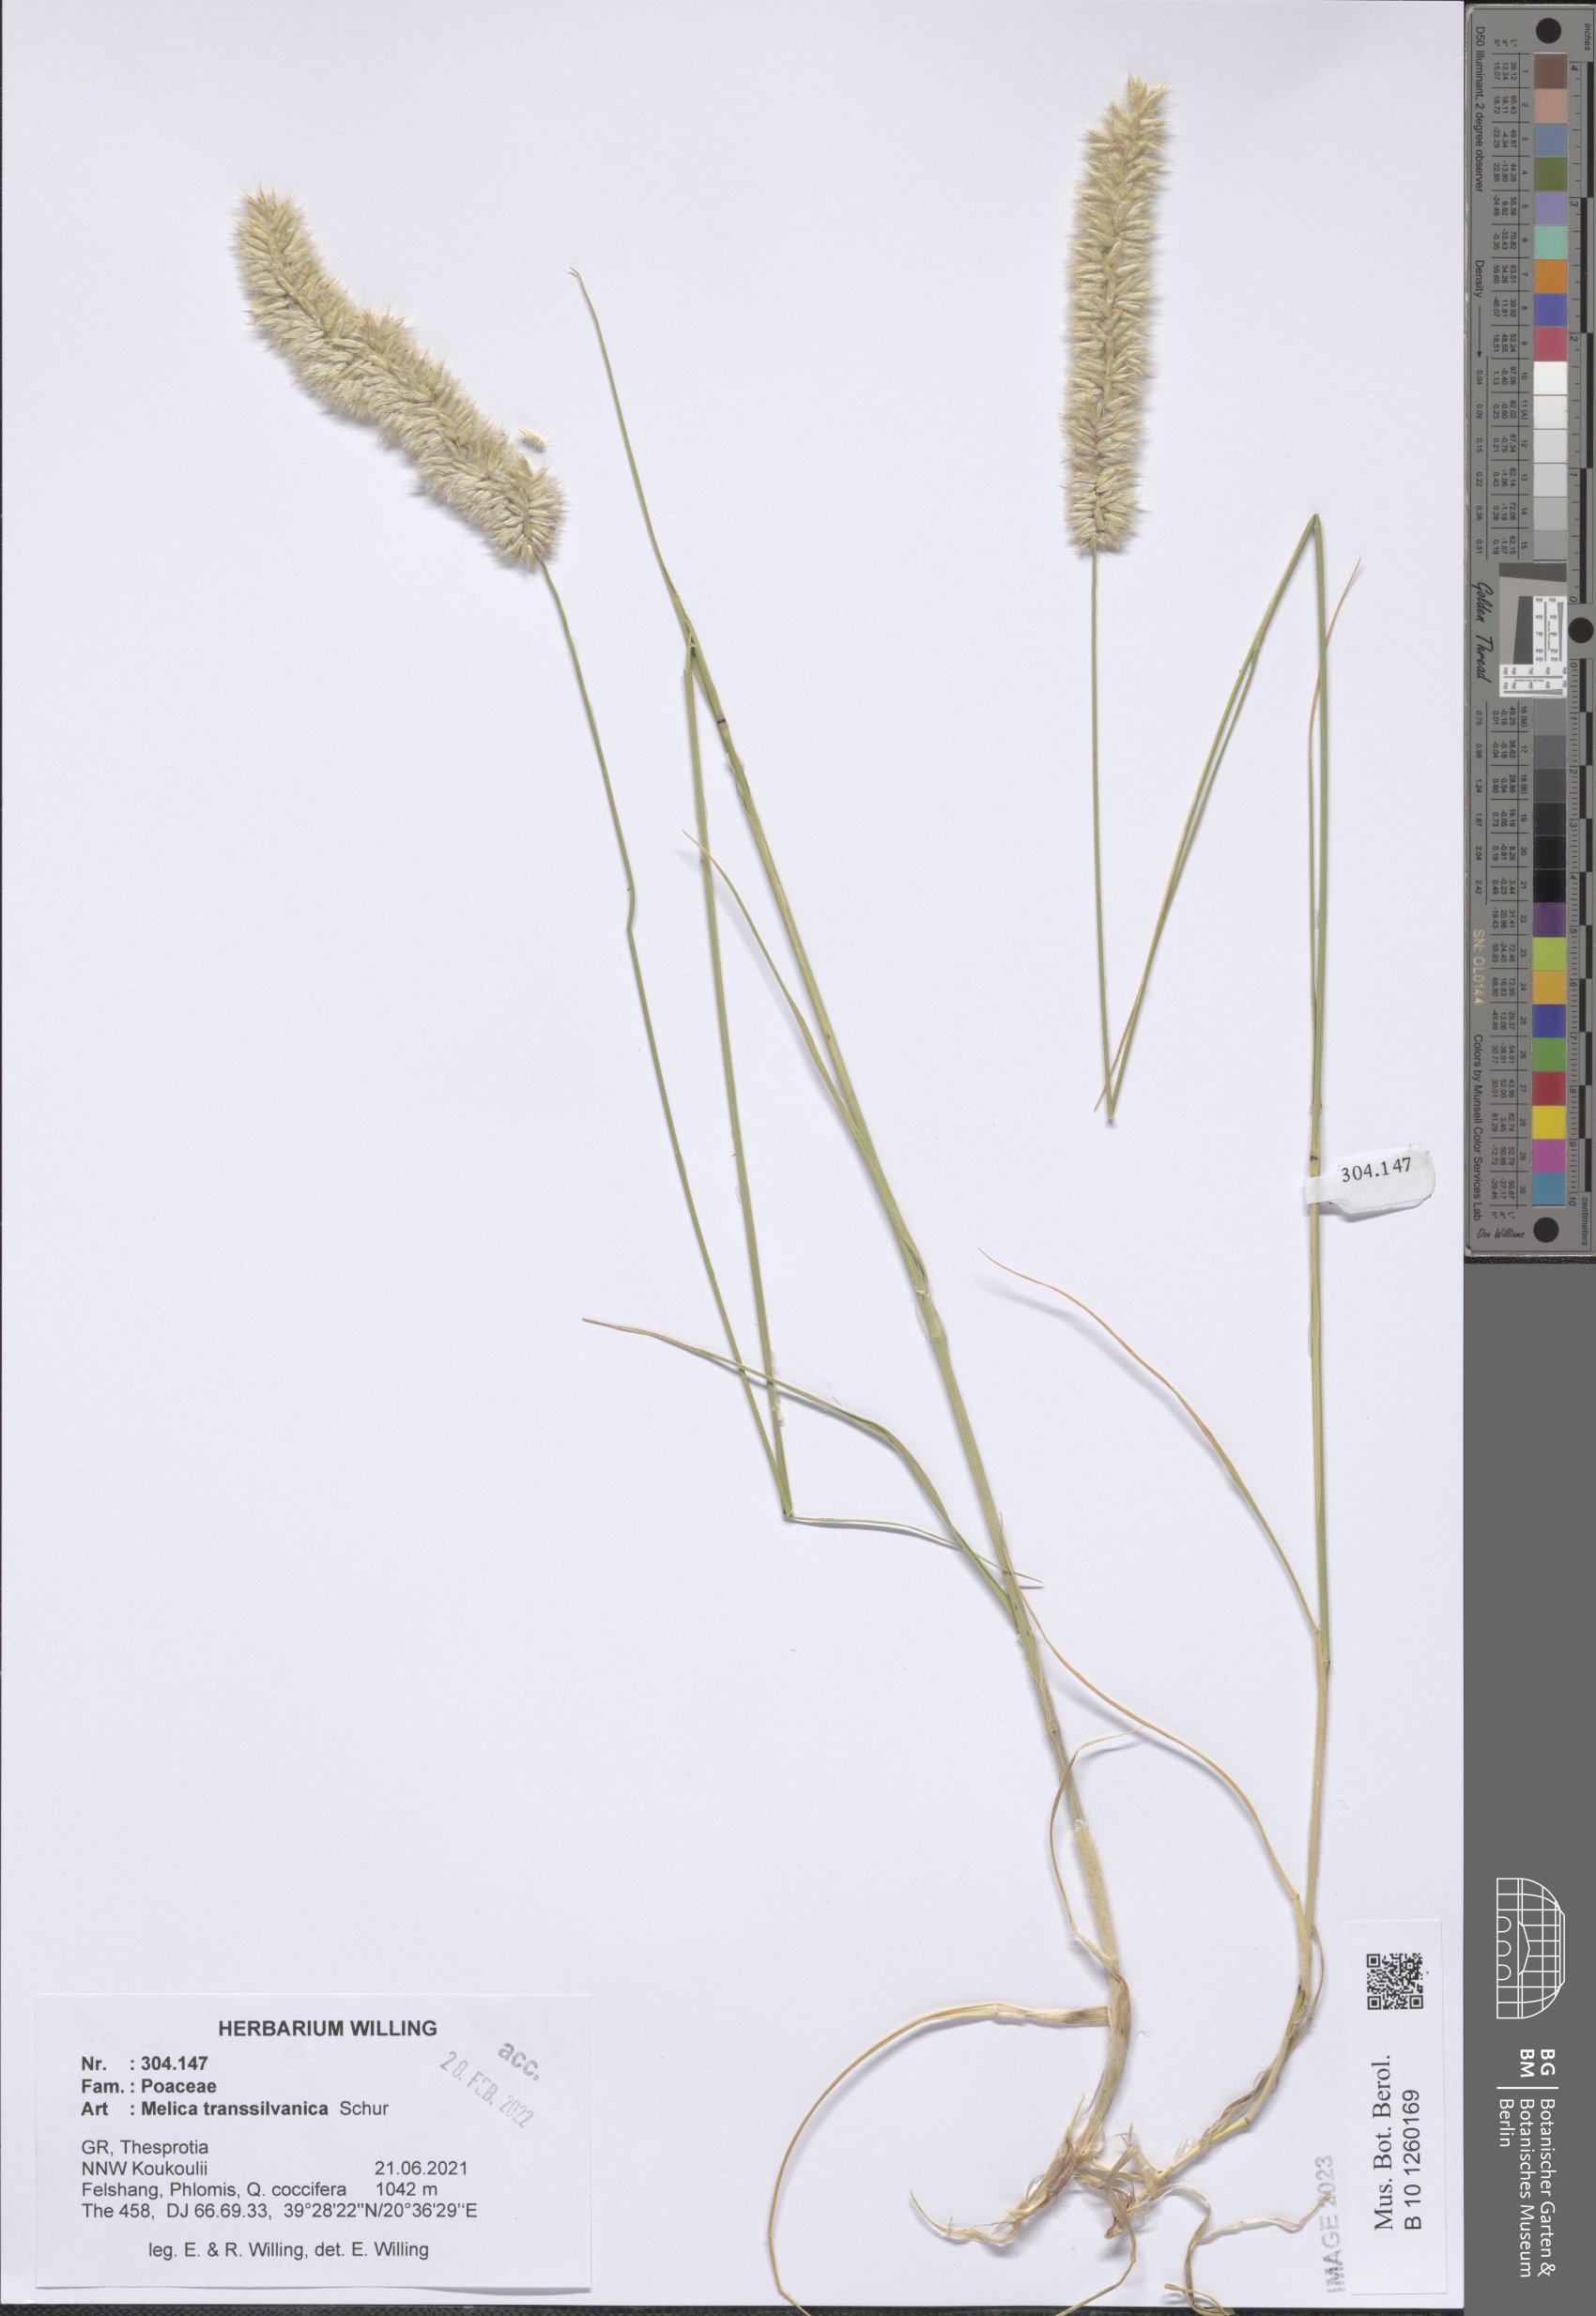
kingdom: Plantae
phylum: Tracheophyta
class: Liliopsida
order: Poales
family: Poaceae
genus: Melica
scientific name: Melica transsilvanica
